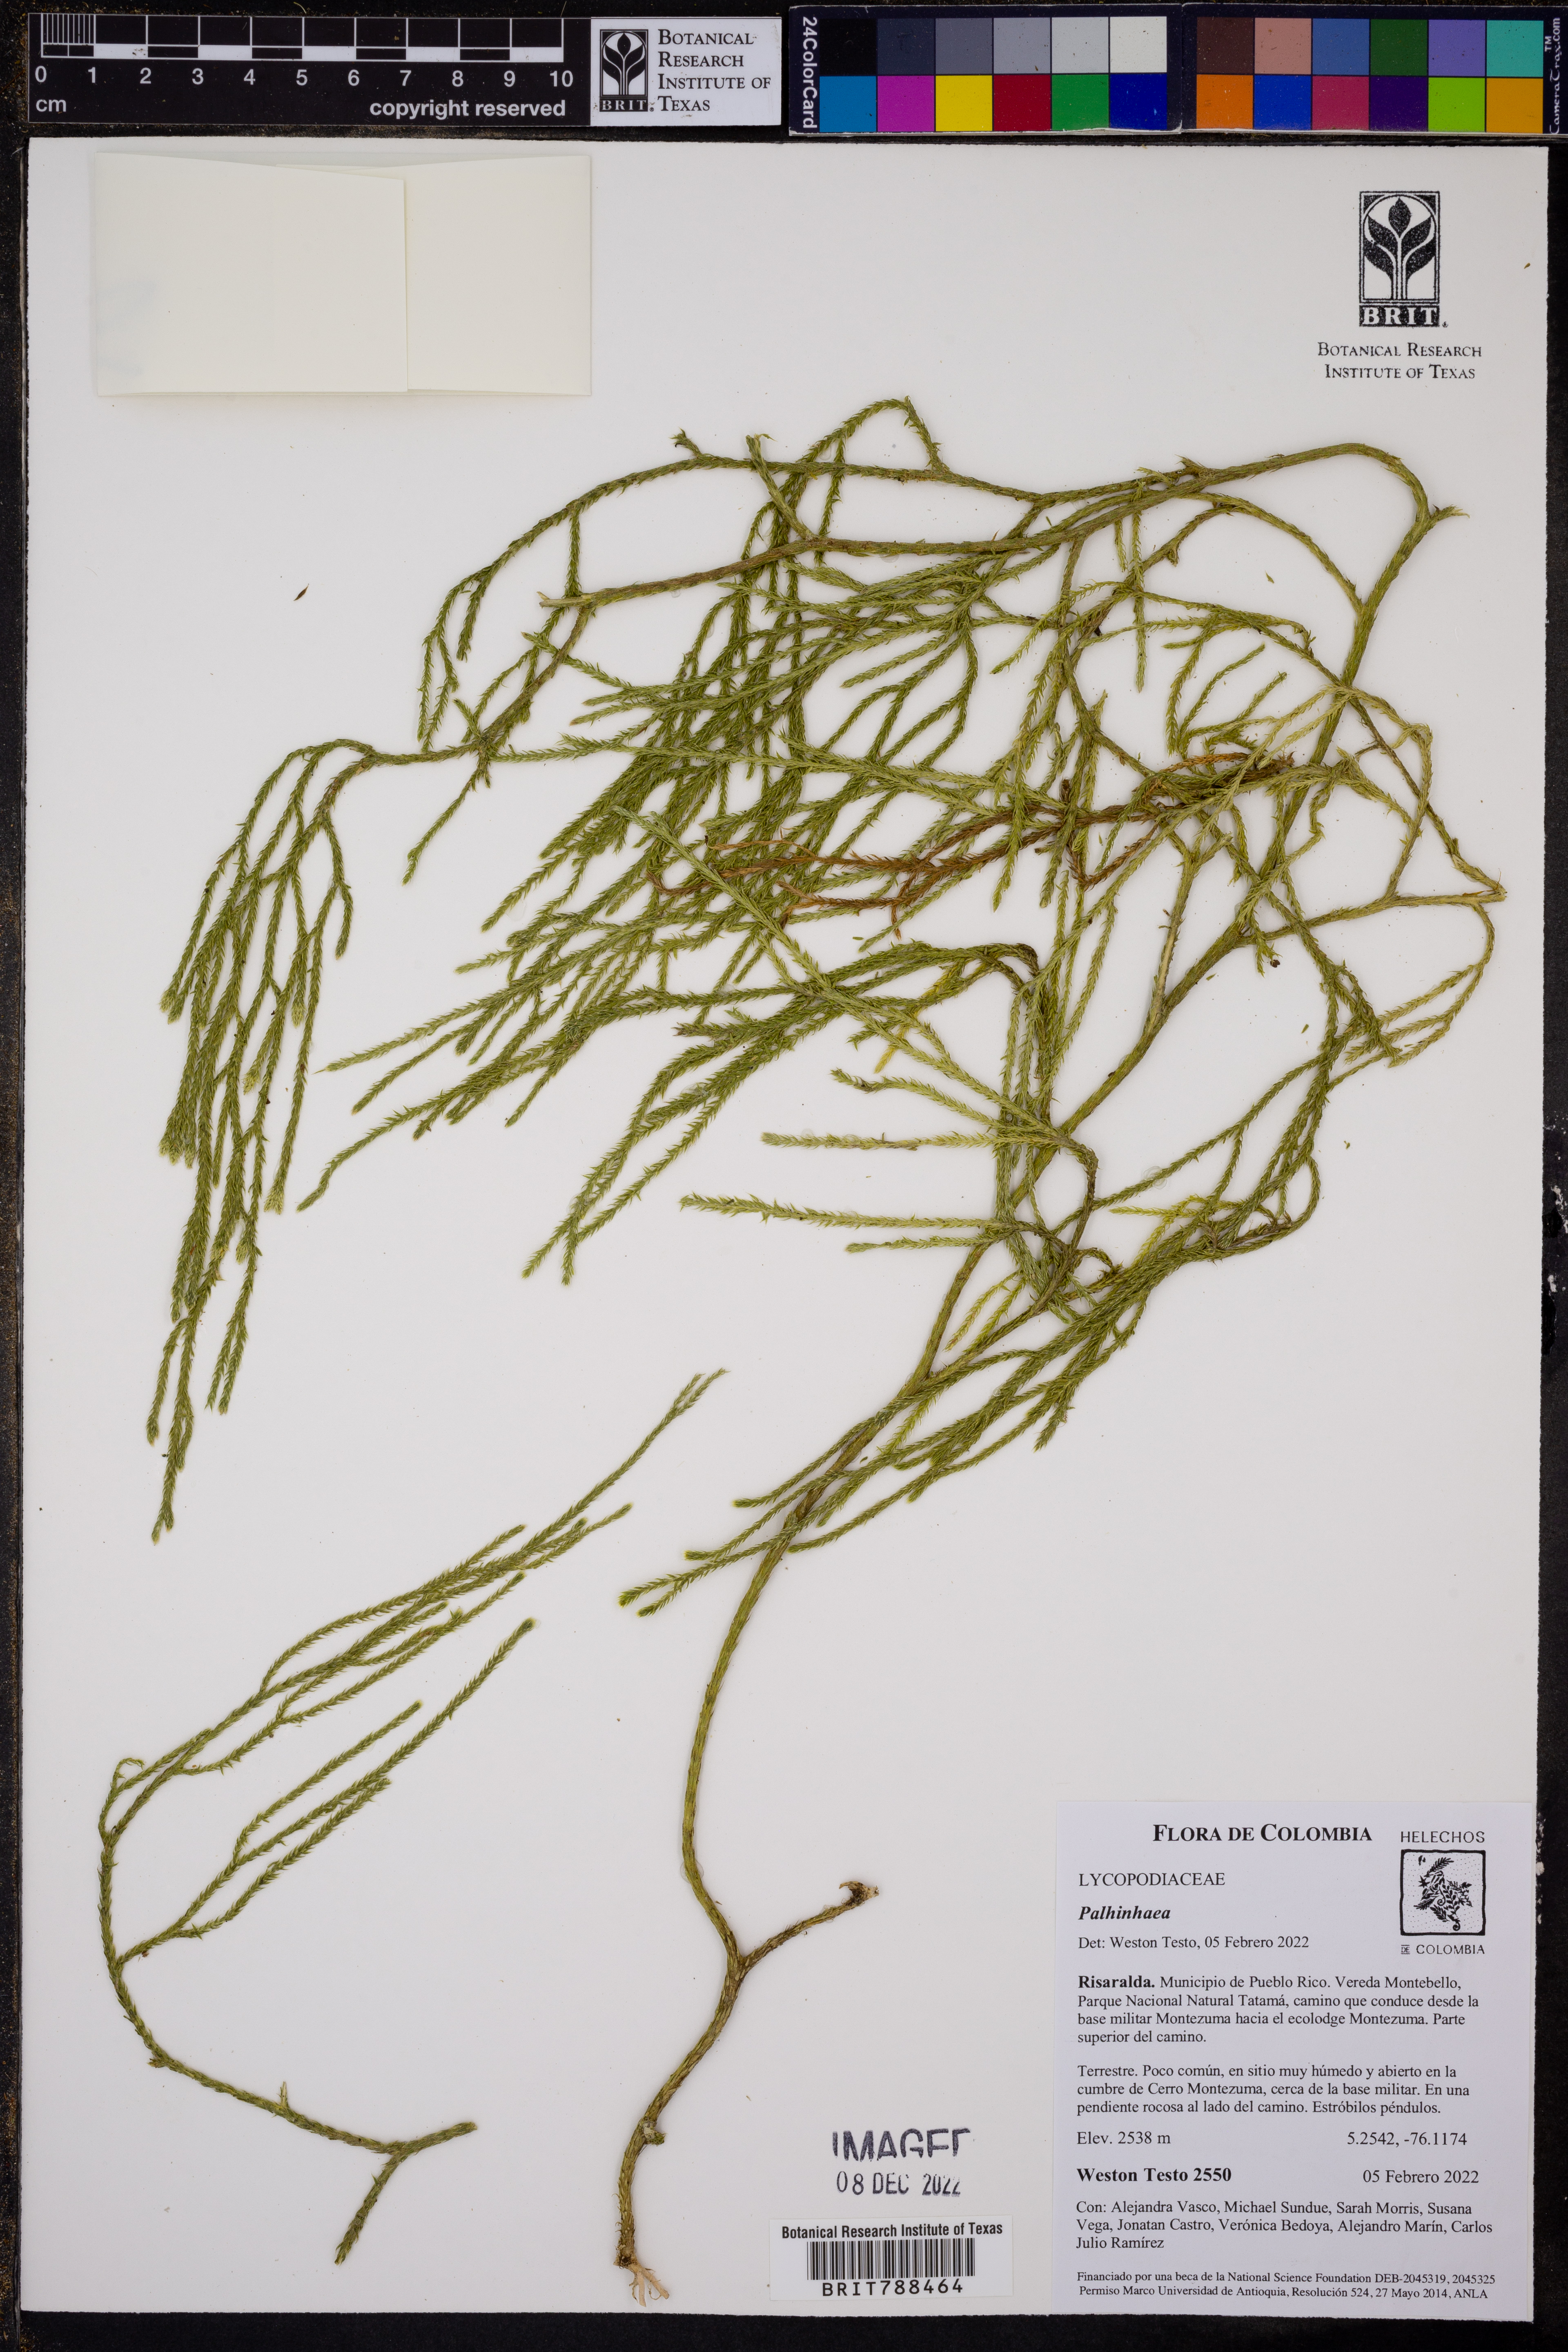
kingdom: Plantae
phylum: Tracheophyta
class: Lycopodiopsida
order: Lycopodiales
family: Lycopodiaceae
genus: Palhinhaea
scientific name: Palhinhaea
